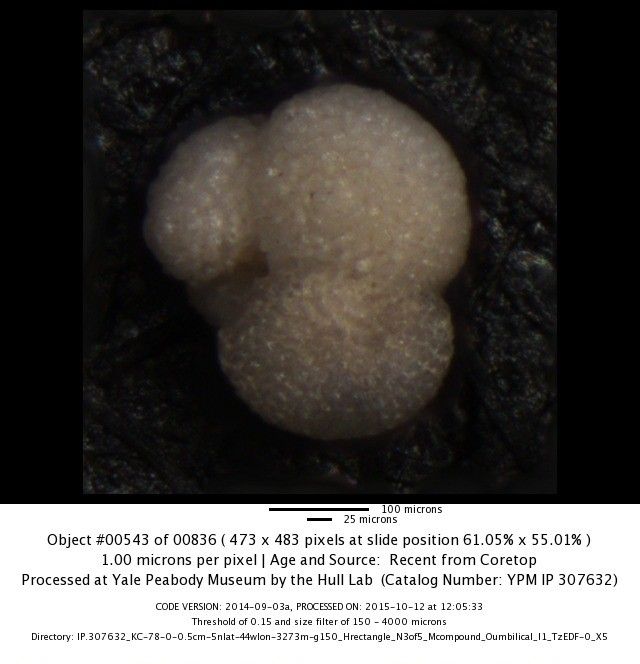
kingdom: Chromista
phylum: Foraminifera
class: Globothalamea
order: Rotaliida
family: Globigerinidae
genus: Globigerinoides
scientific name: Globigerinoides sacculifer
